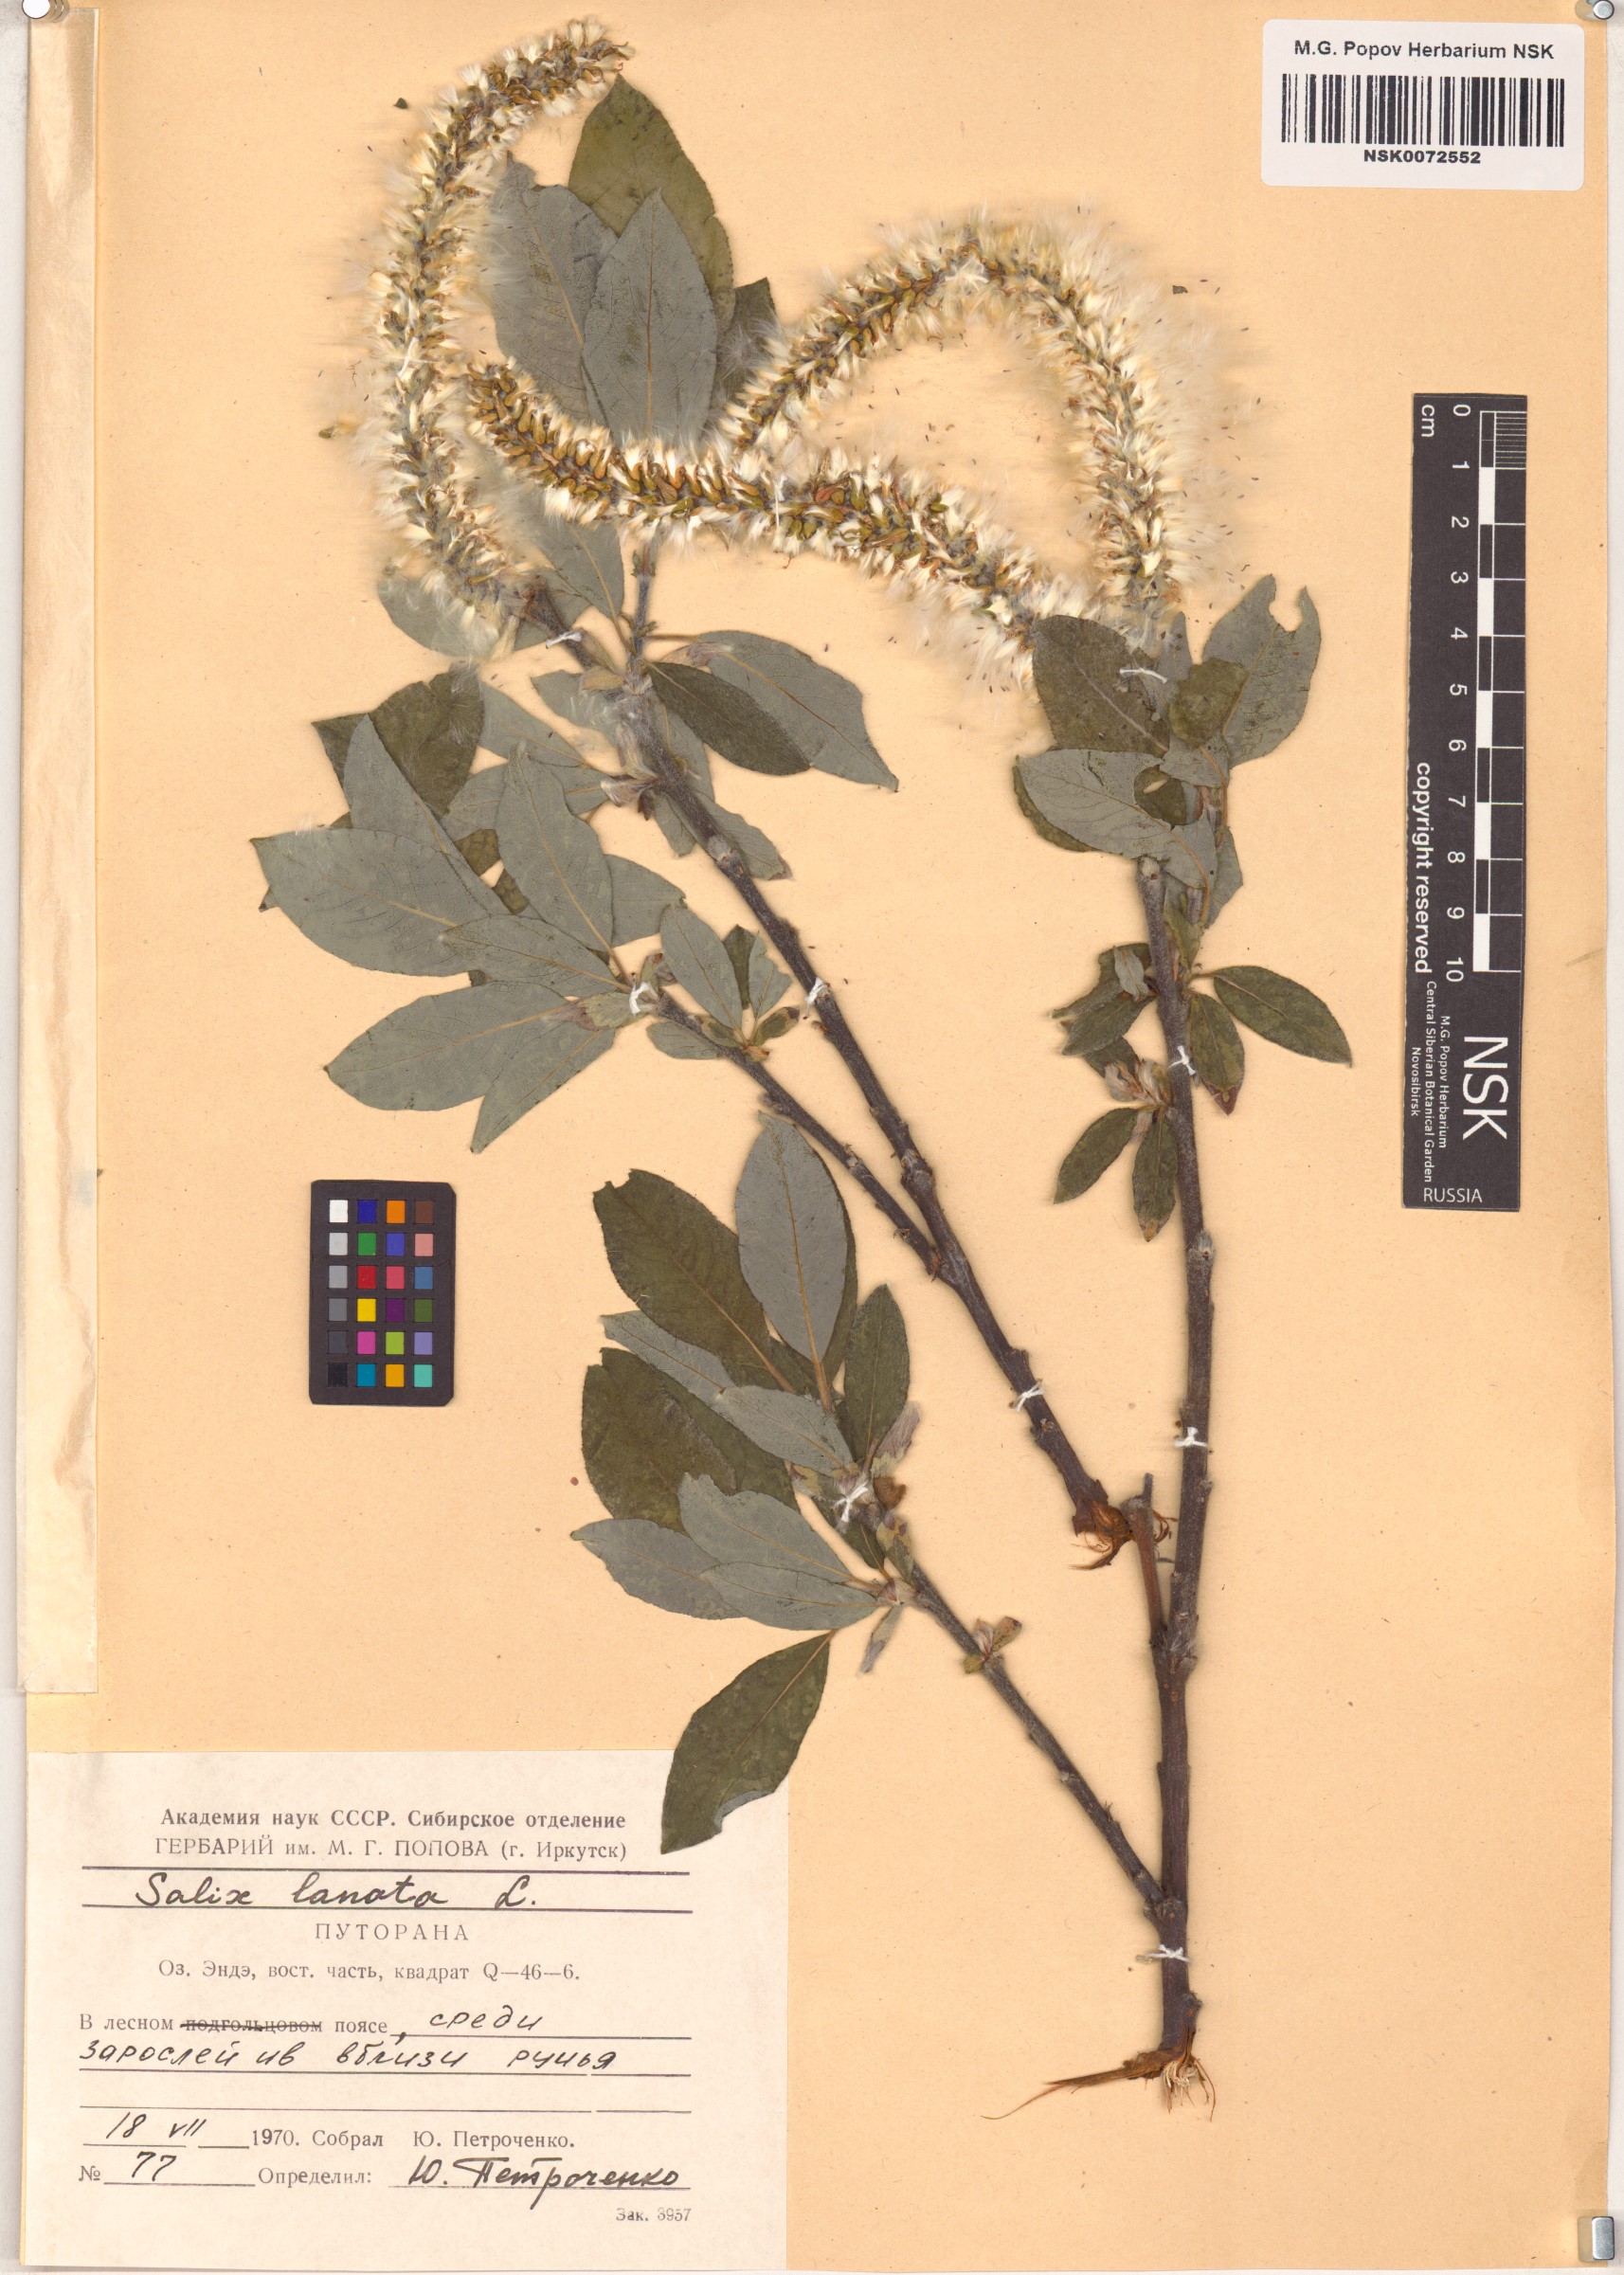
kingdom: Plantae
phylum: Tracheophyta
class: Magnoliopsida
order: Malpighiales
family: Salicaceae
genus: Salix
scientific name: Salix lanata
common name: Woolly willow
